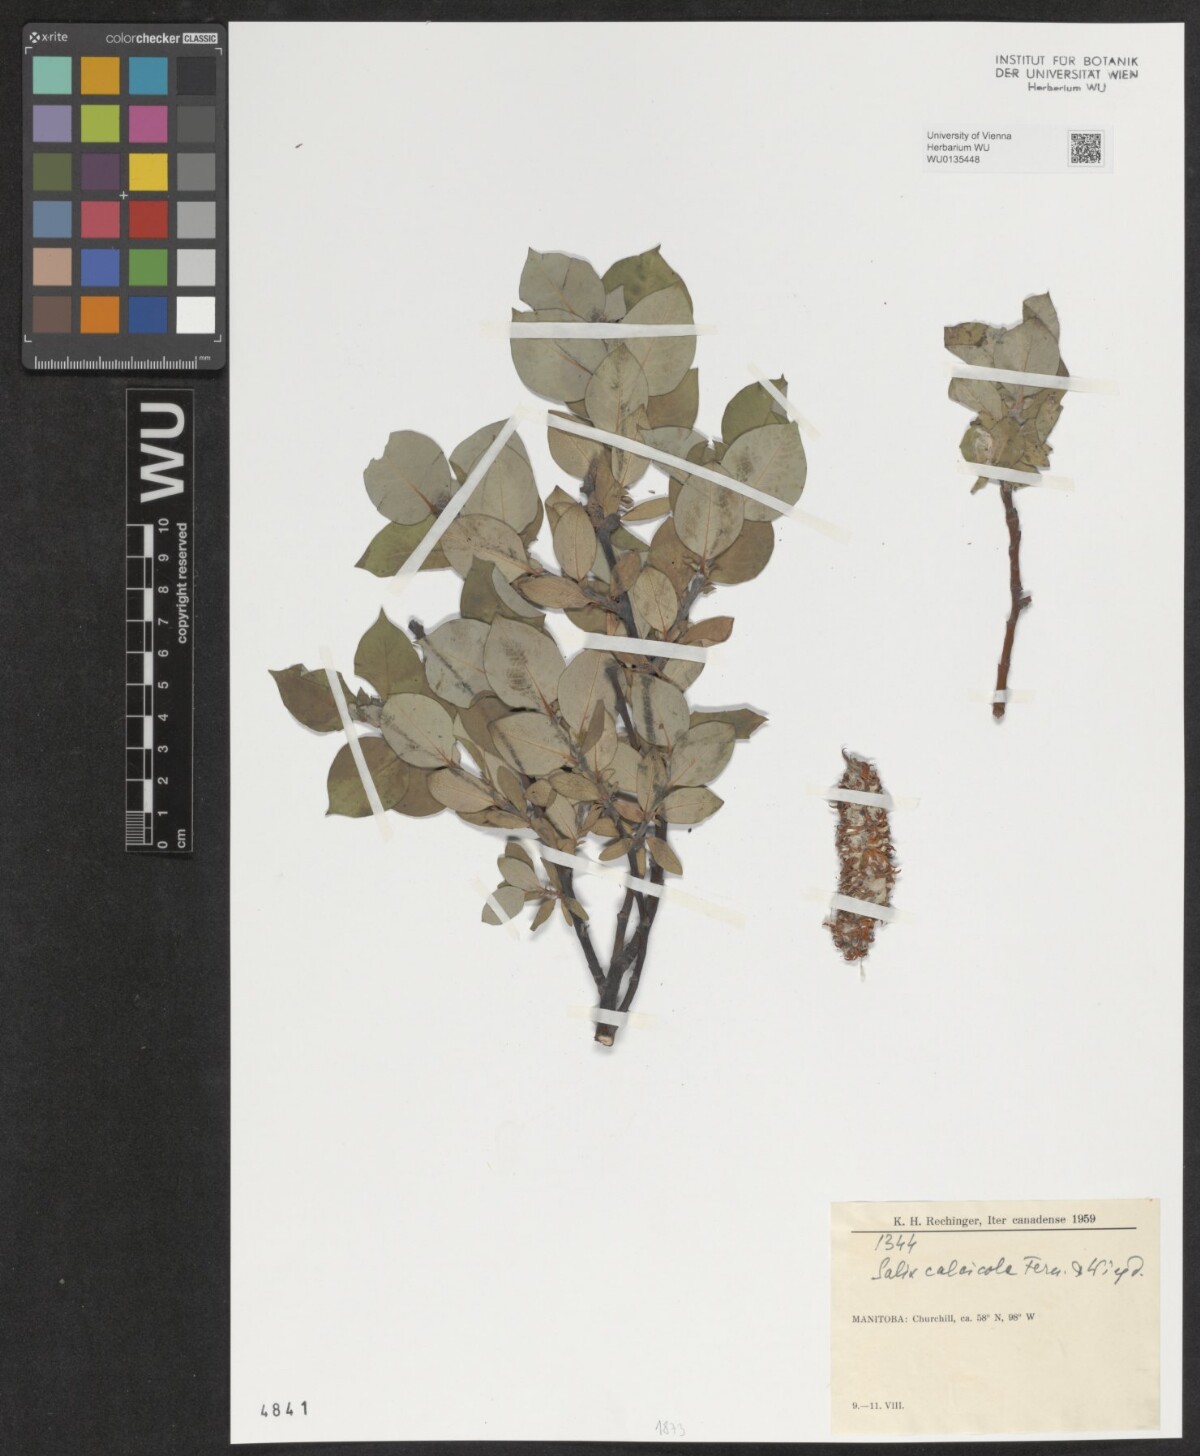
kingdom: Plantae
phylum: Tracheophyta
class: Magnoliopsida
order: Malpighiales
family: Salicaceae
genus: Salix
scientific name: Salix calcicola
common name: Calcareous willow
